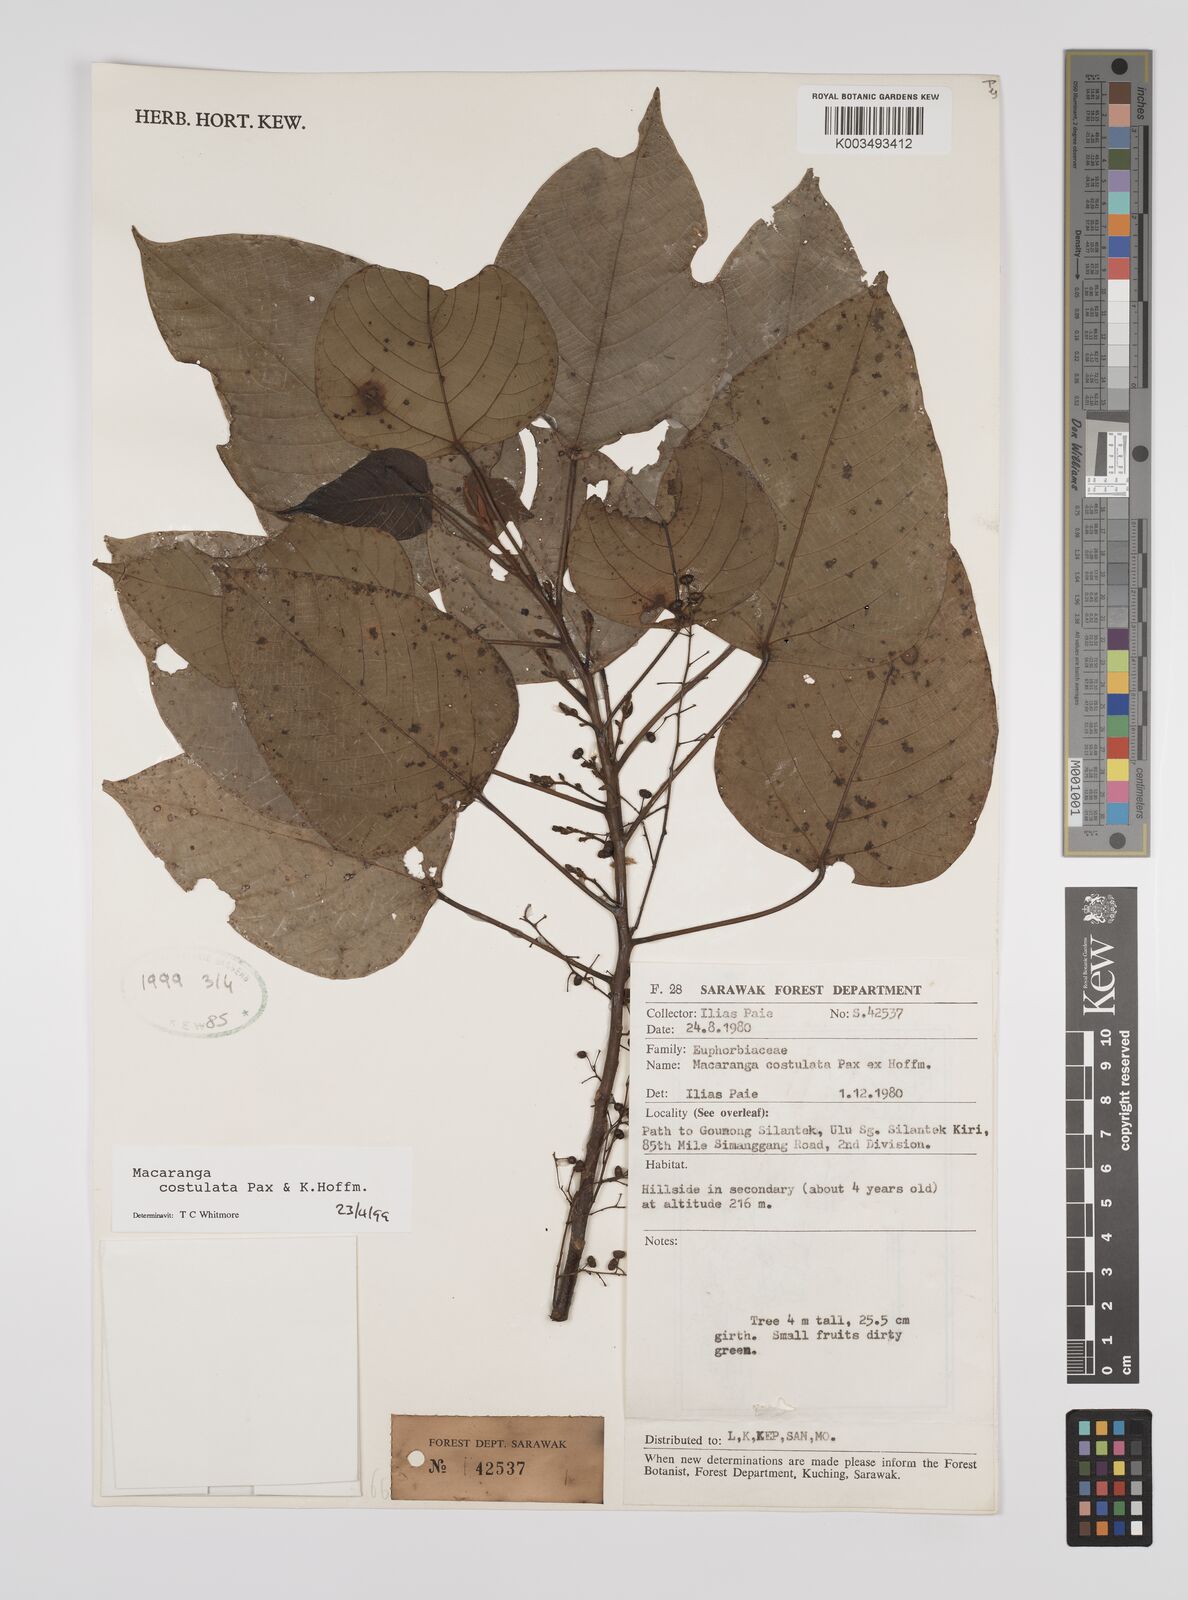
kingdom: Plantae
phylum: Tracheophyta
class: Magnoliopsida
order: Malpighiales
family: Euphorbiaceae
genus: Macaranga
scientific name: Macaranga costulata
